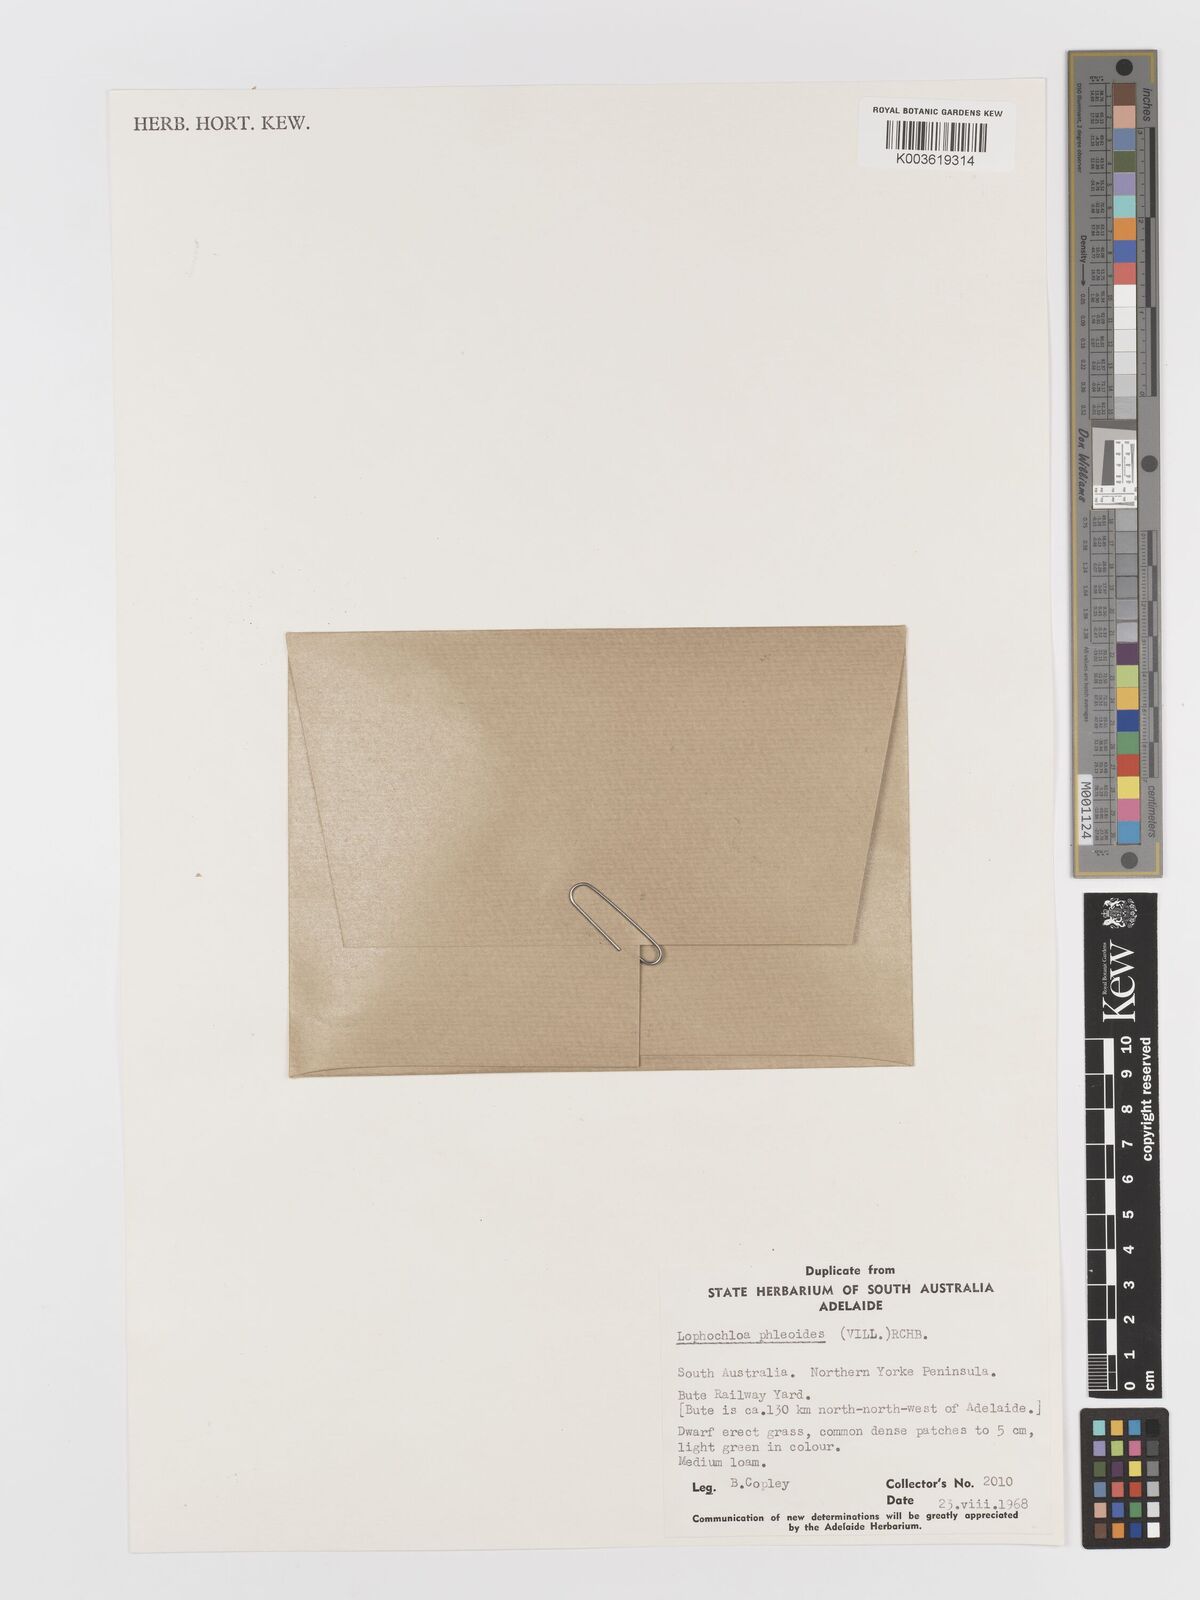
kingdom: Plantae
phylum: Tracheophyta
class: Liliopsida
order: Poales
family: Poaceae
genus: Rostraria
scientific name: Rostraria cristata
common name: Mediterranean hair-grass
